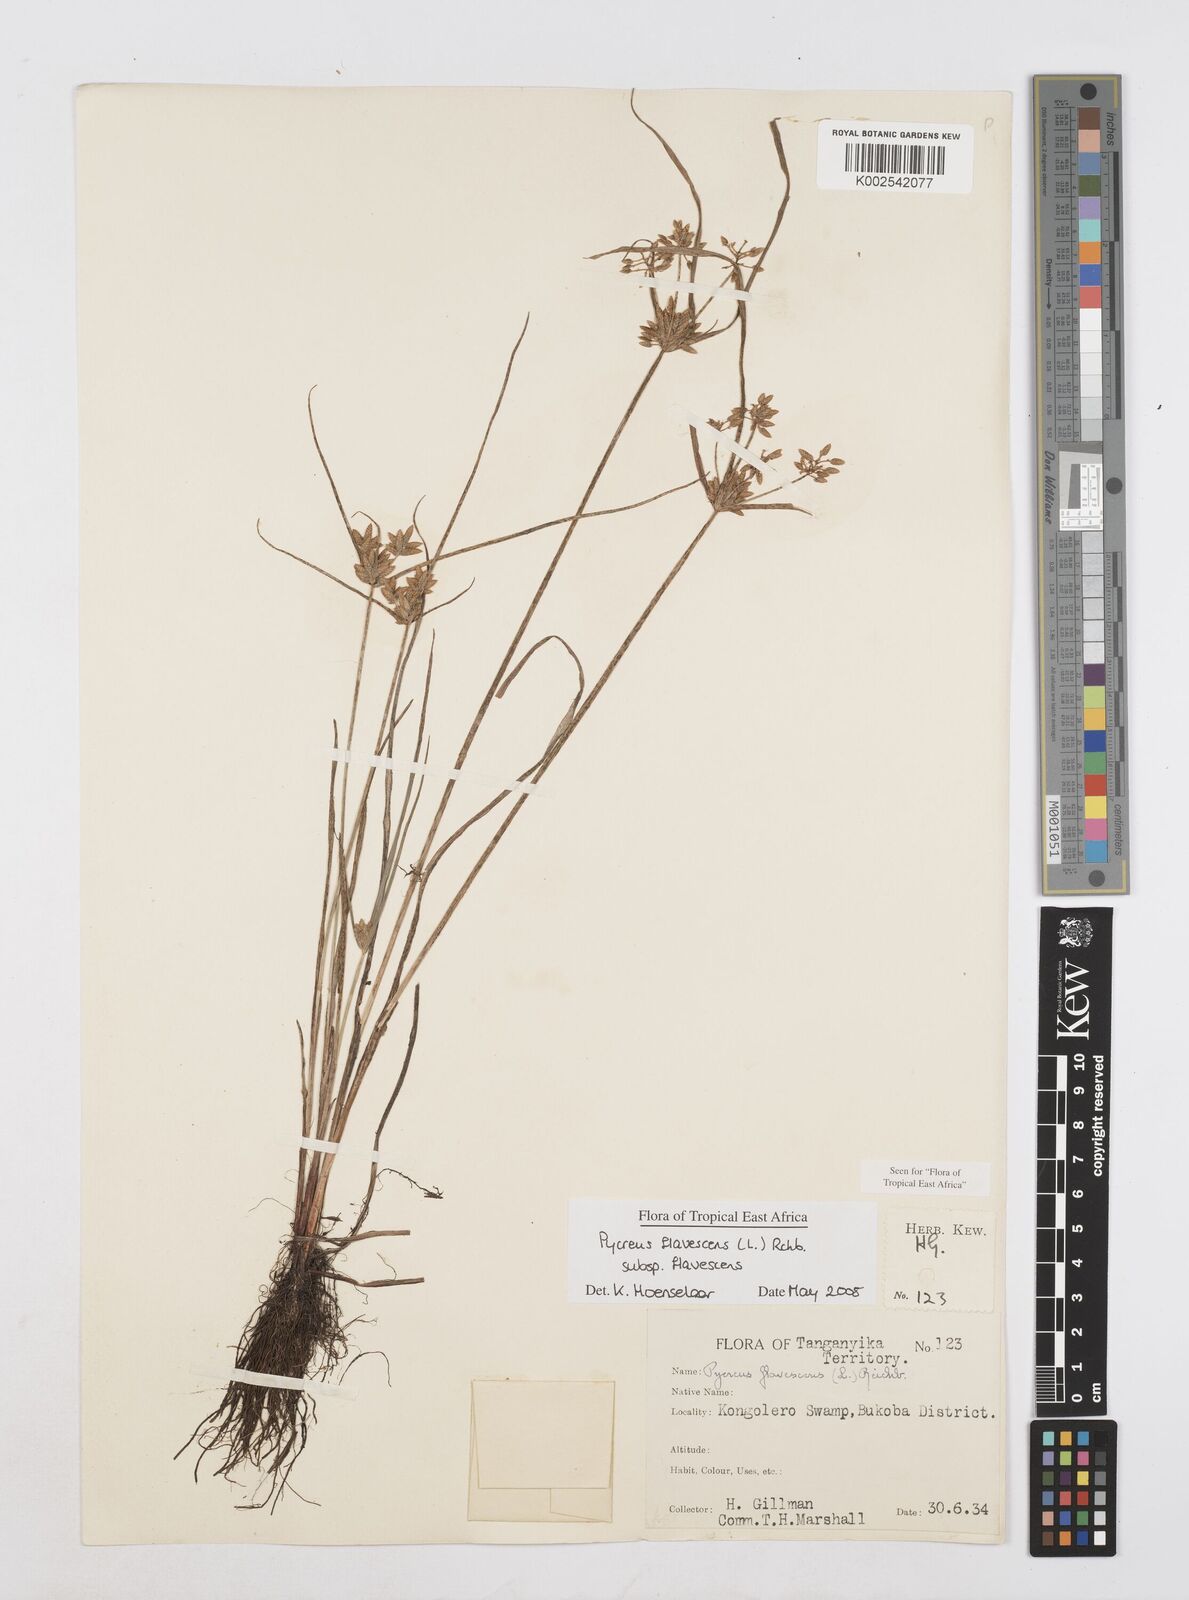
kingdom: Plantae
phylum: Tracheophyta
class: Liliopsida
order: Poales
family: Cyperaceae
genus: Cyperus
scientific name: Cyperus flavescens
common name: Yellow galingale
